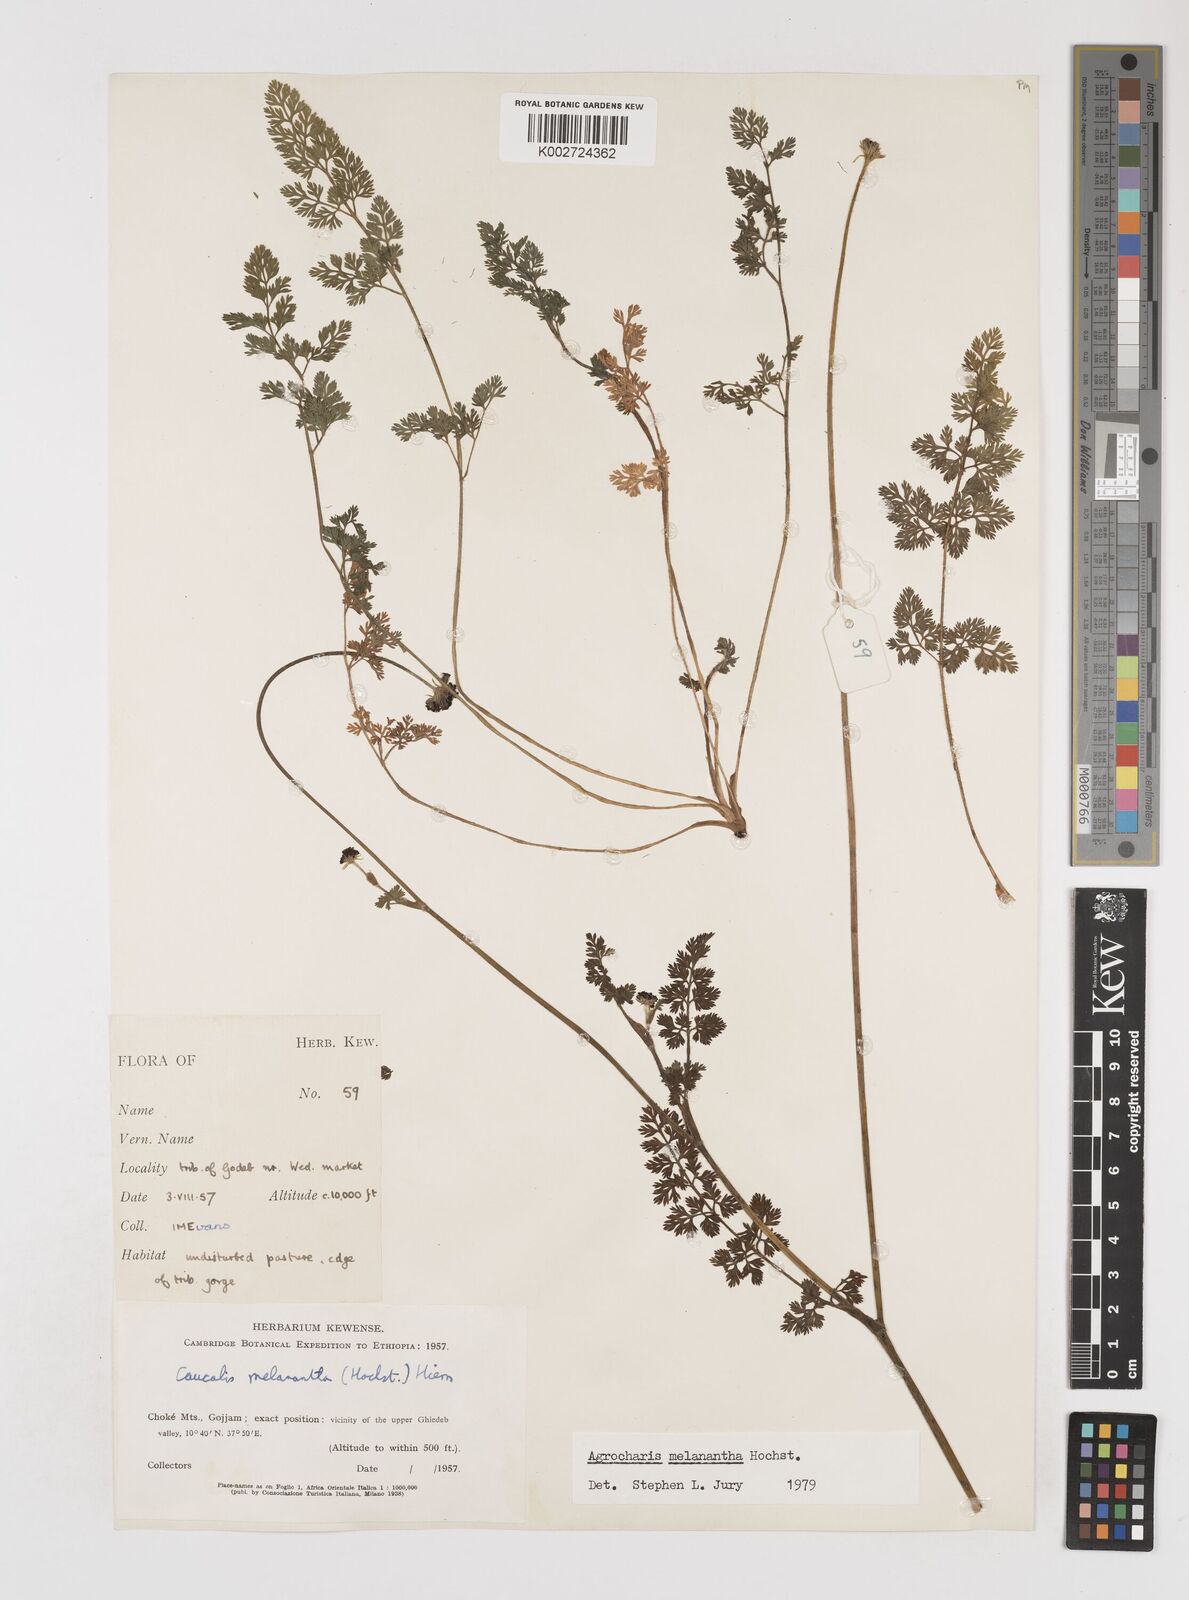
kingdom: Plantae
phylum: Tracheophyta
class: Magnoliopsida
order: Apiales
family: Apiaceae
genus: Daucus
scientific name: Daucus melananthus
